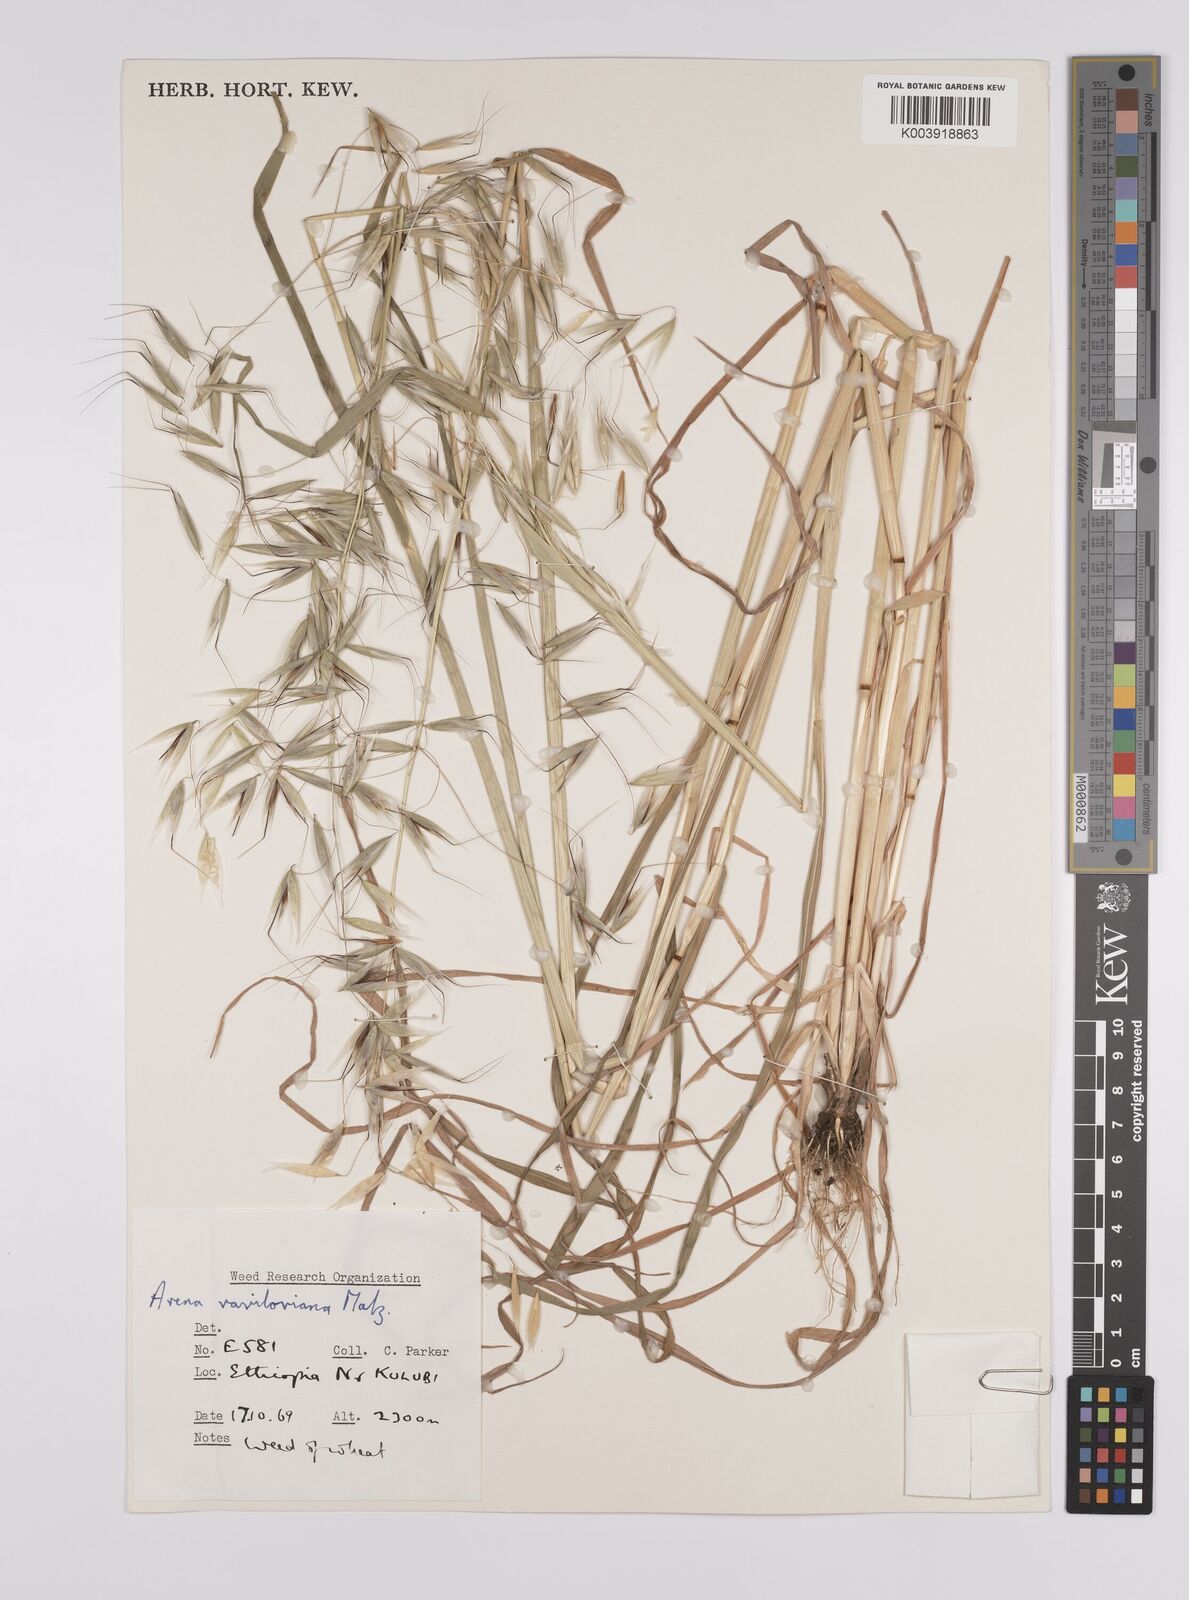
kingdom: Plantae
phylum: Tracheophyta
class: Liliopsida
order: Poales
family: Poaceae
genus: Avena
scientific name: Avena vaviloviana
